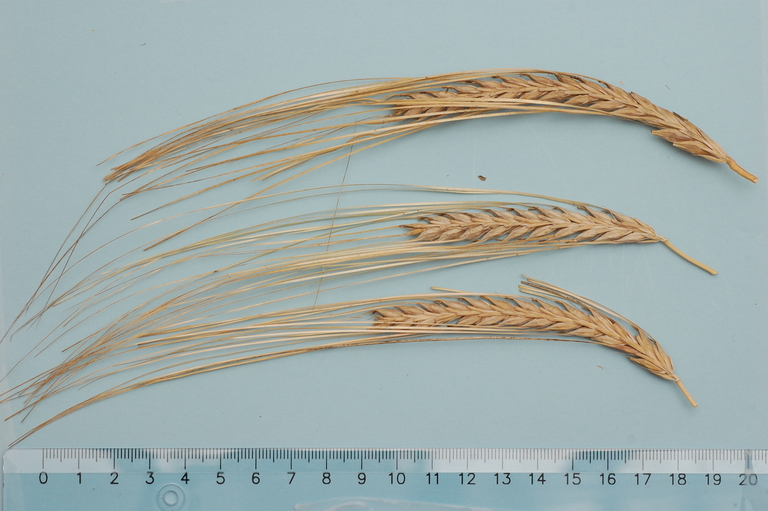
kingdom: Plantae
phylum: Tracheophyta
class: Liliopsida
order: Poales
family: Poaceae
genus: Hordeum
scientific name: Hordeum vulgare
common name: Common barley
